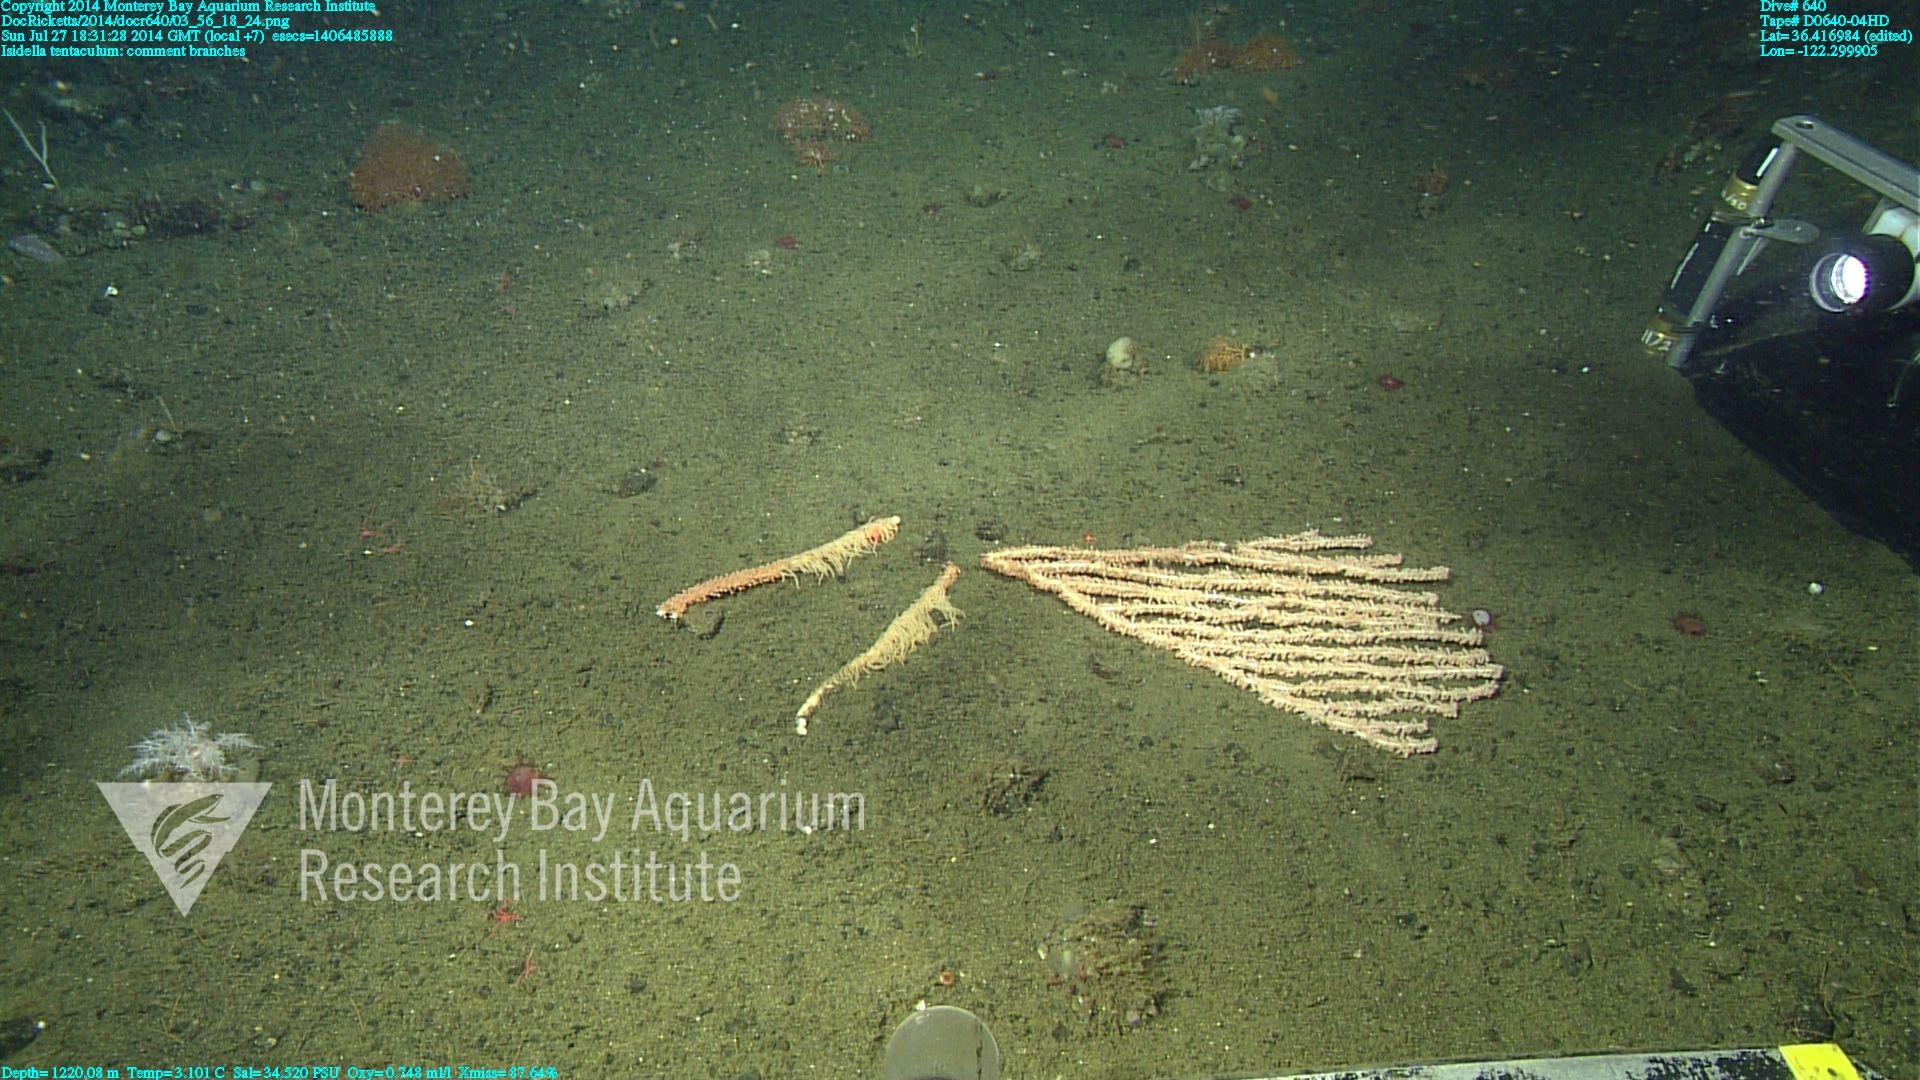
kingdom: Animalia
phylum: Cnidaria
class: Anthozoa
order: Scleralcyonacea
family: Keratoisididae
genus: Isidella
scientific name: Isidella tentaculum
